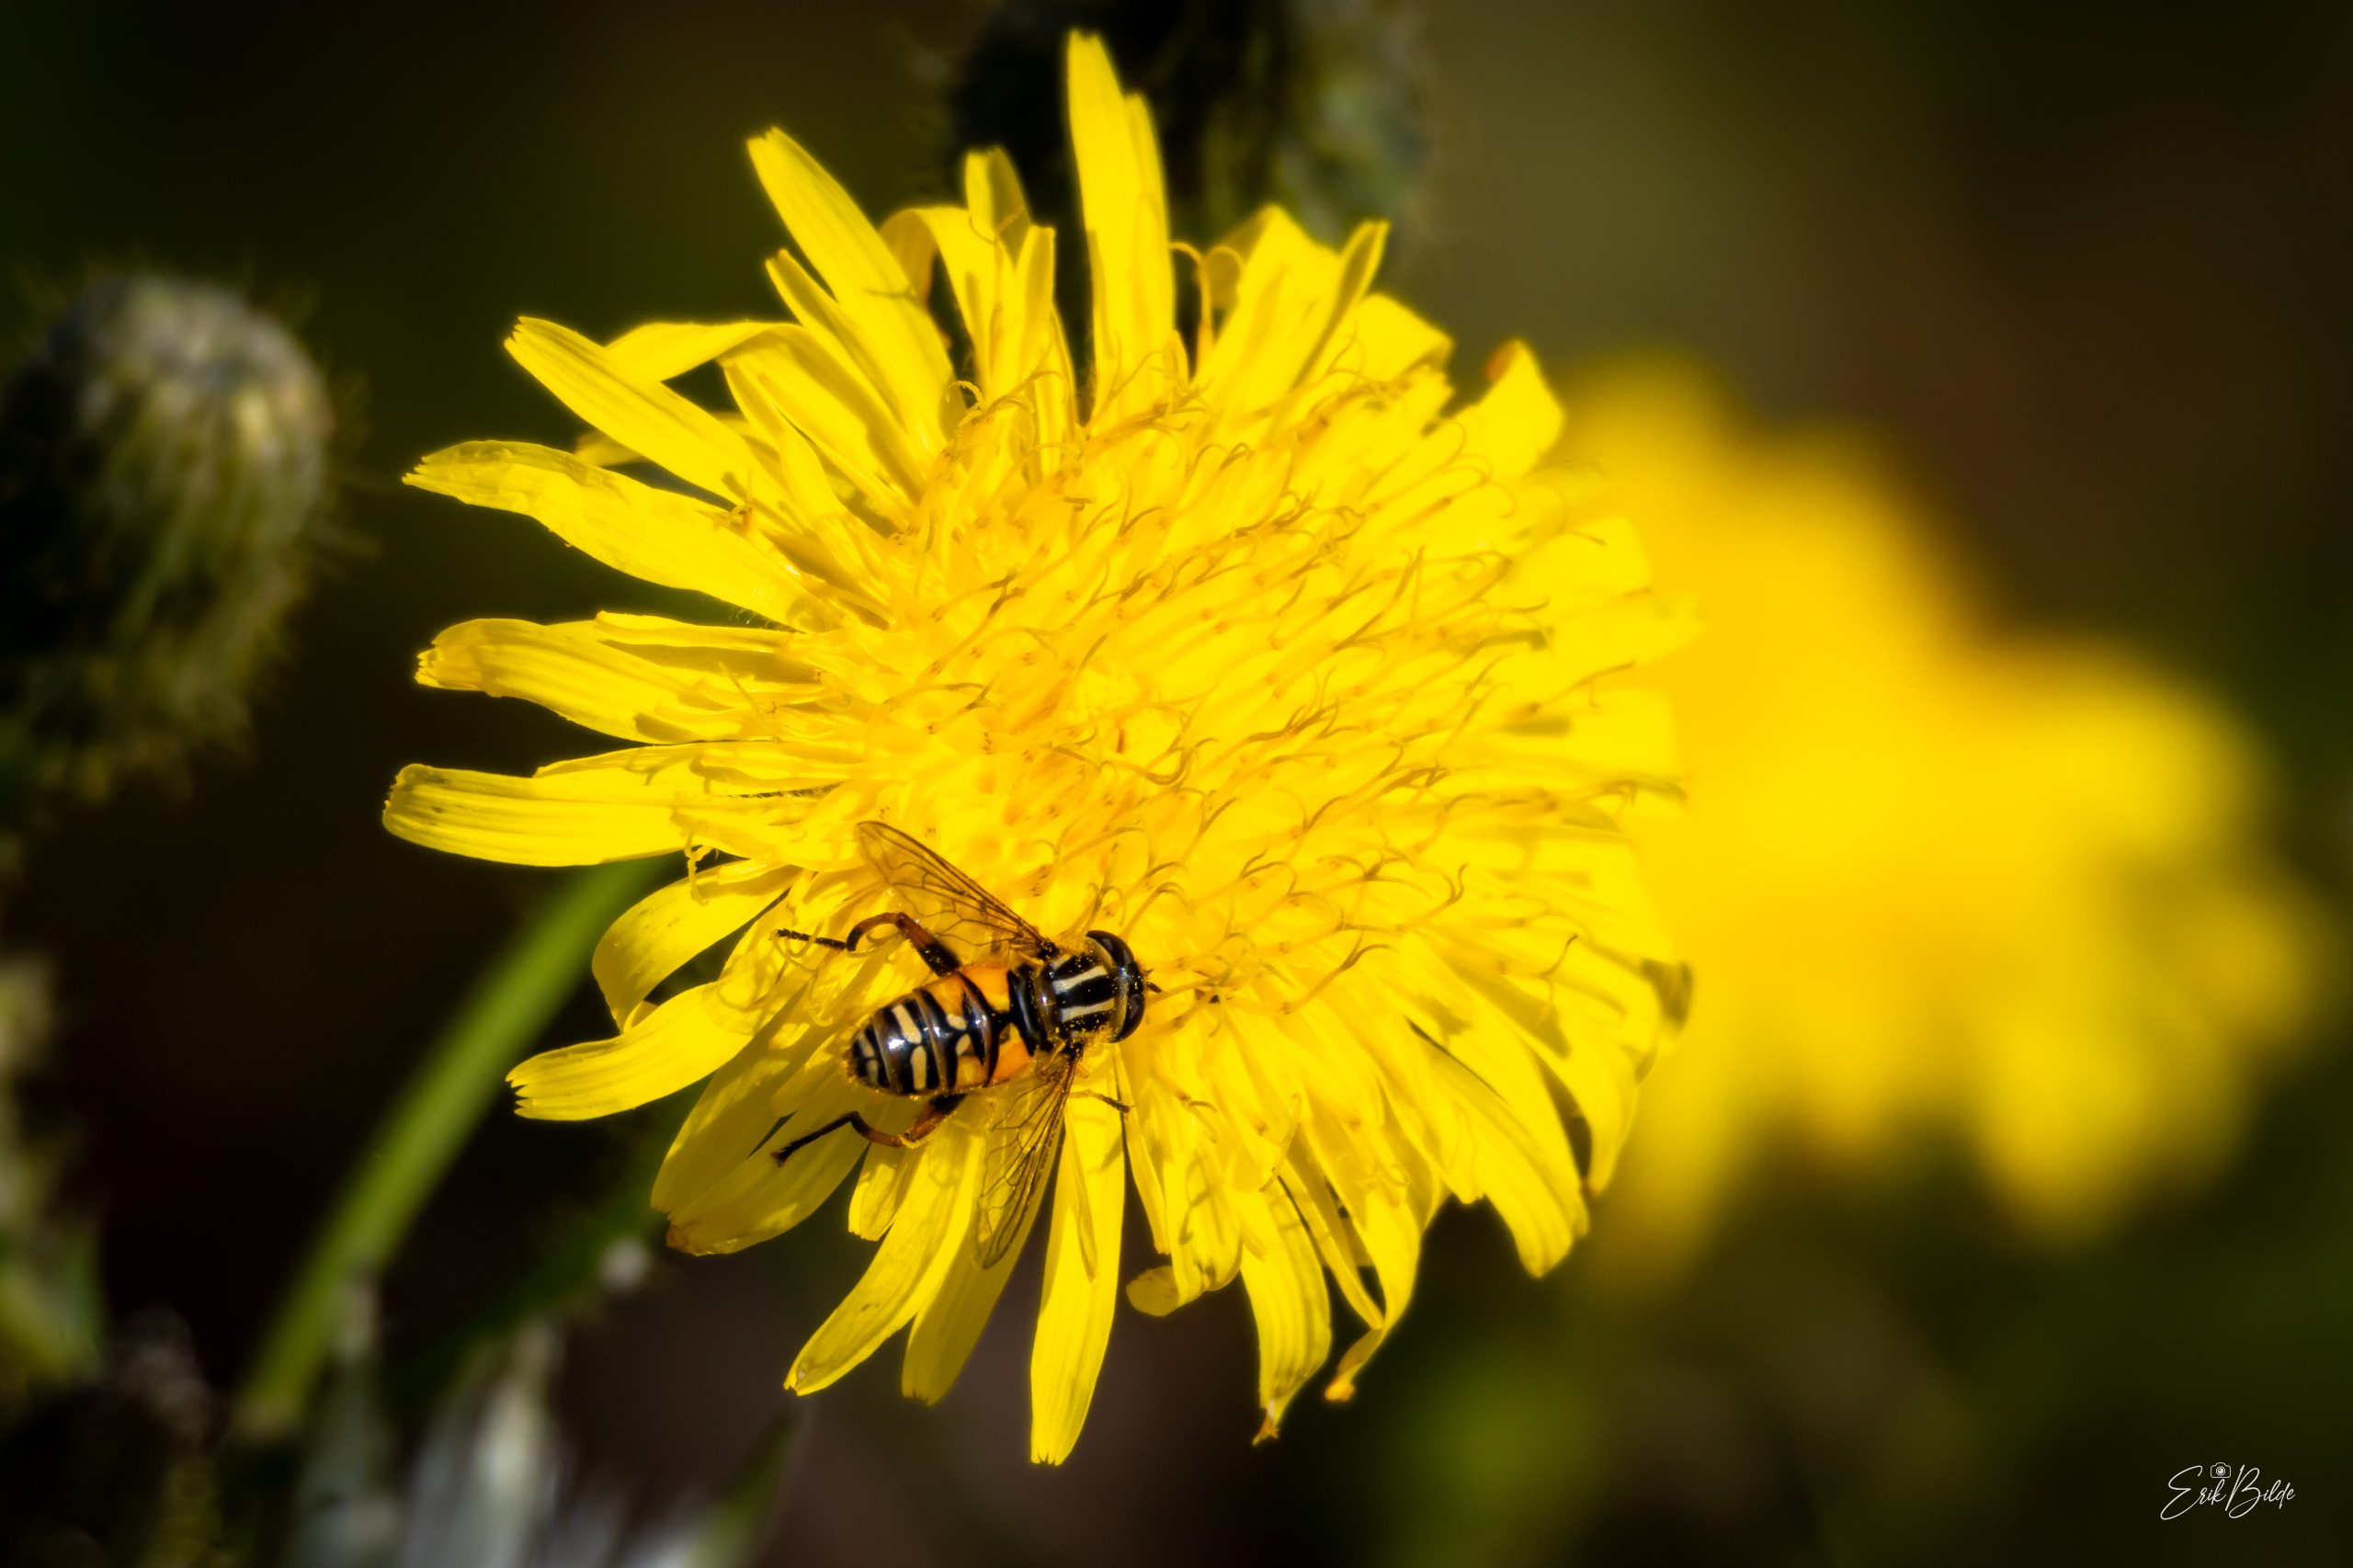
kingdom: Animalia
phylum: Arthropoda
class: Insecta
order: Diptera
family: Syrphidae
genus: Helophilus
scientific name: Helophilus pendulus
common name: Almindelig sumpsvirreflue
